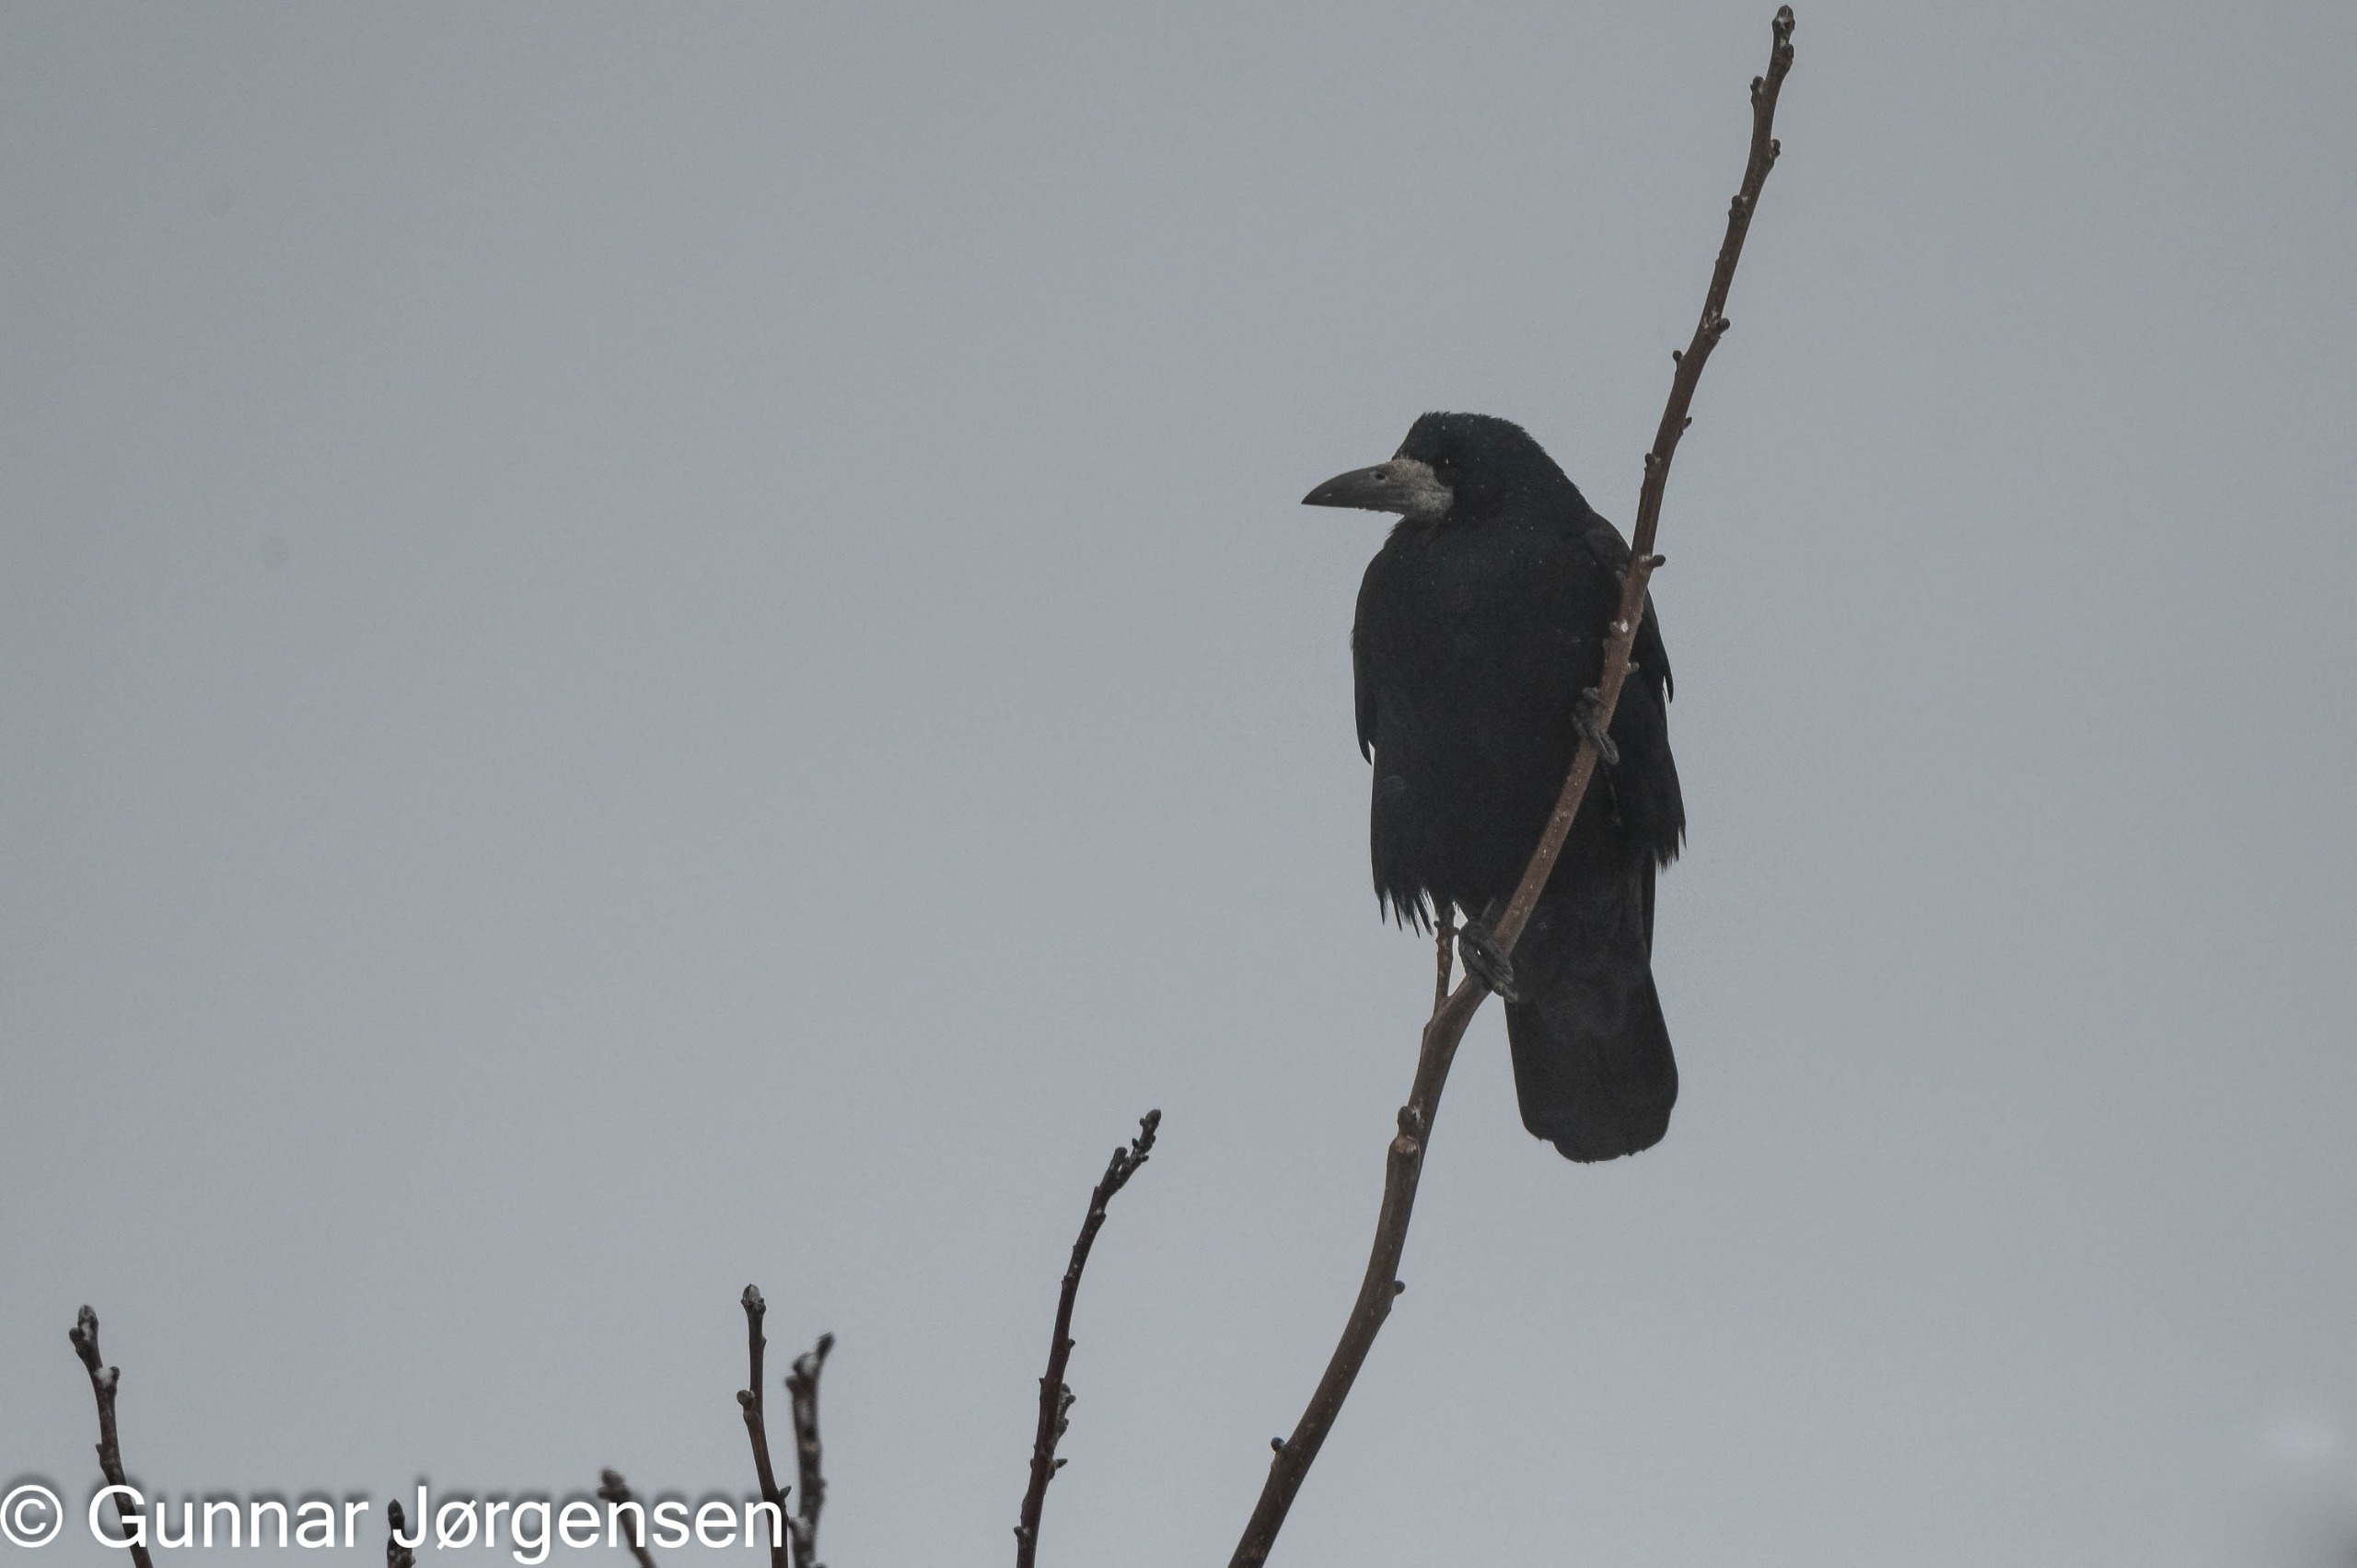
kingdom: Animalia
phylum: Chordata
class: Aves
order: Passeriformes
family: Corvidae
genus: Corvus
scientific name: Corvus frugilegus
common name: Råge
